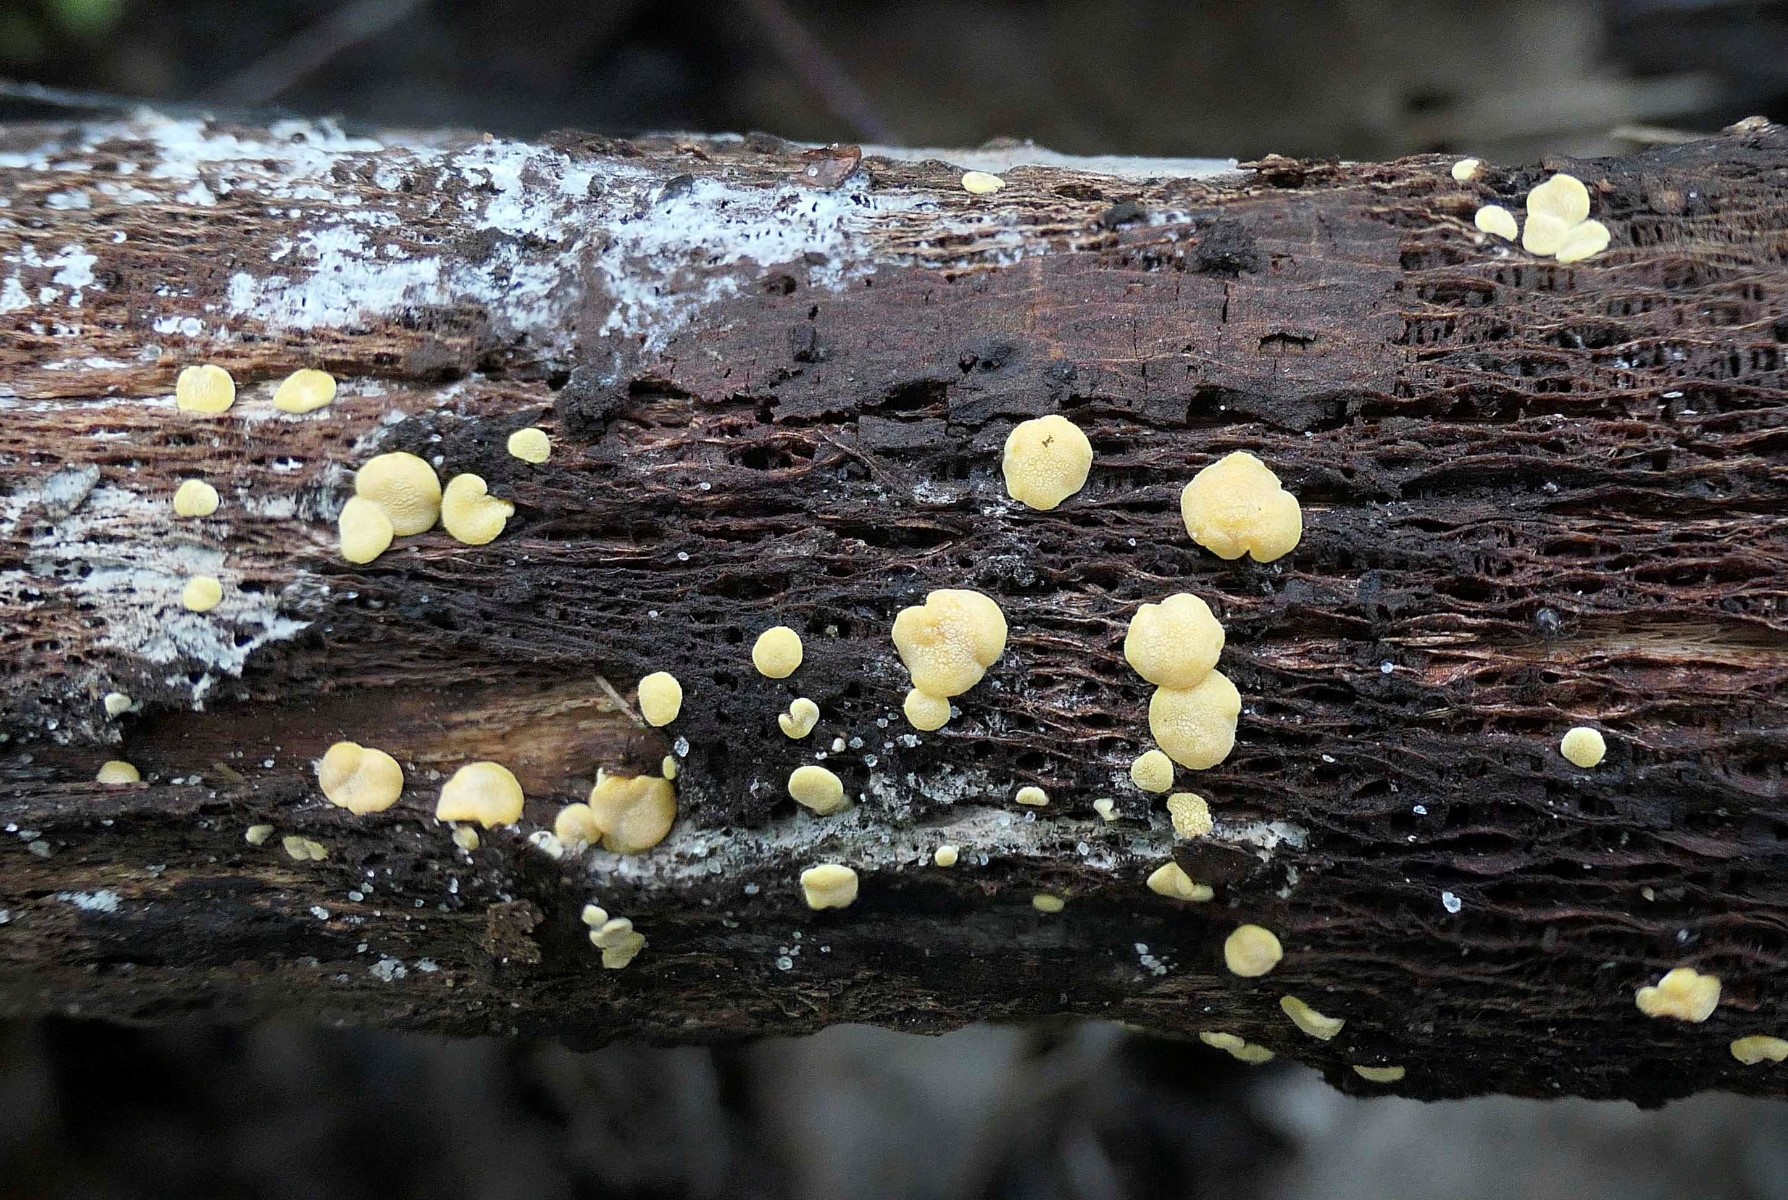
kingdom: Fungi
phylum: Ascomycota
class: Sordariomycetes
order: Hypocreales
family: Hypocreaceae
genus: Trichoderma
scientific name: Trichoderma aureoviride
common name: æggegul kødkerne
